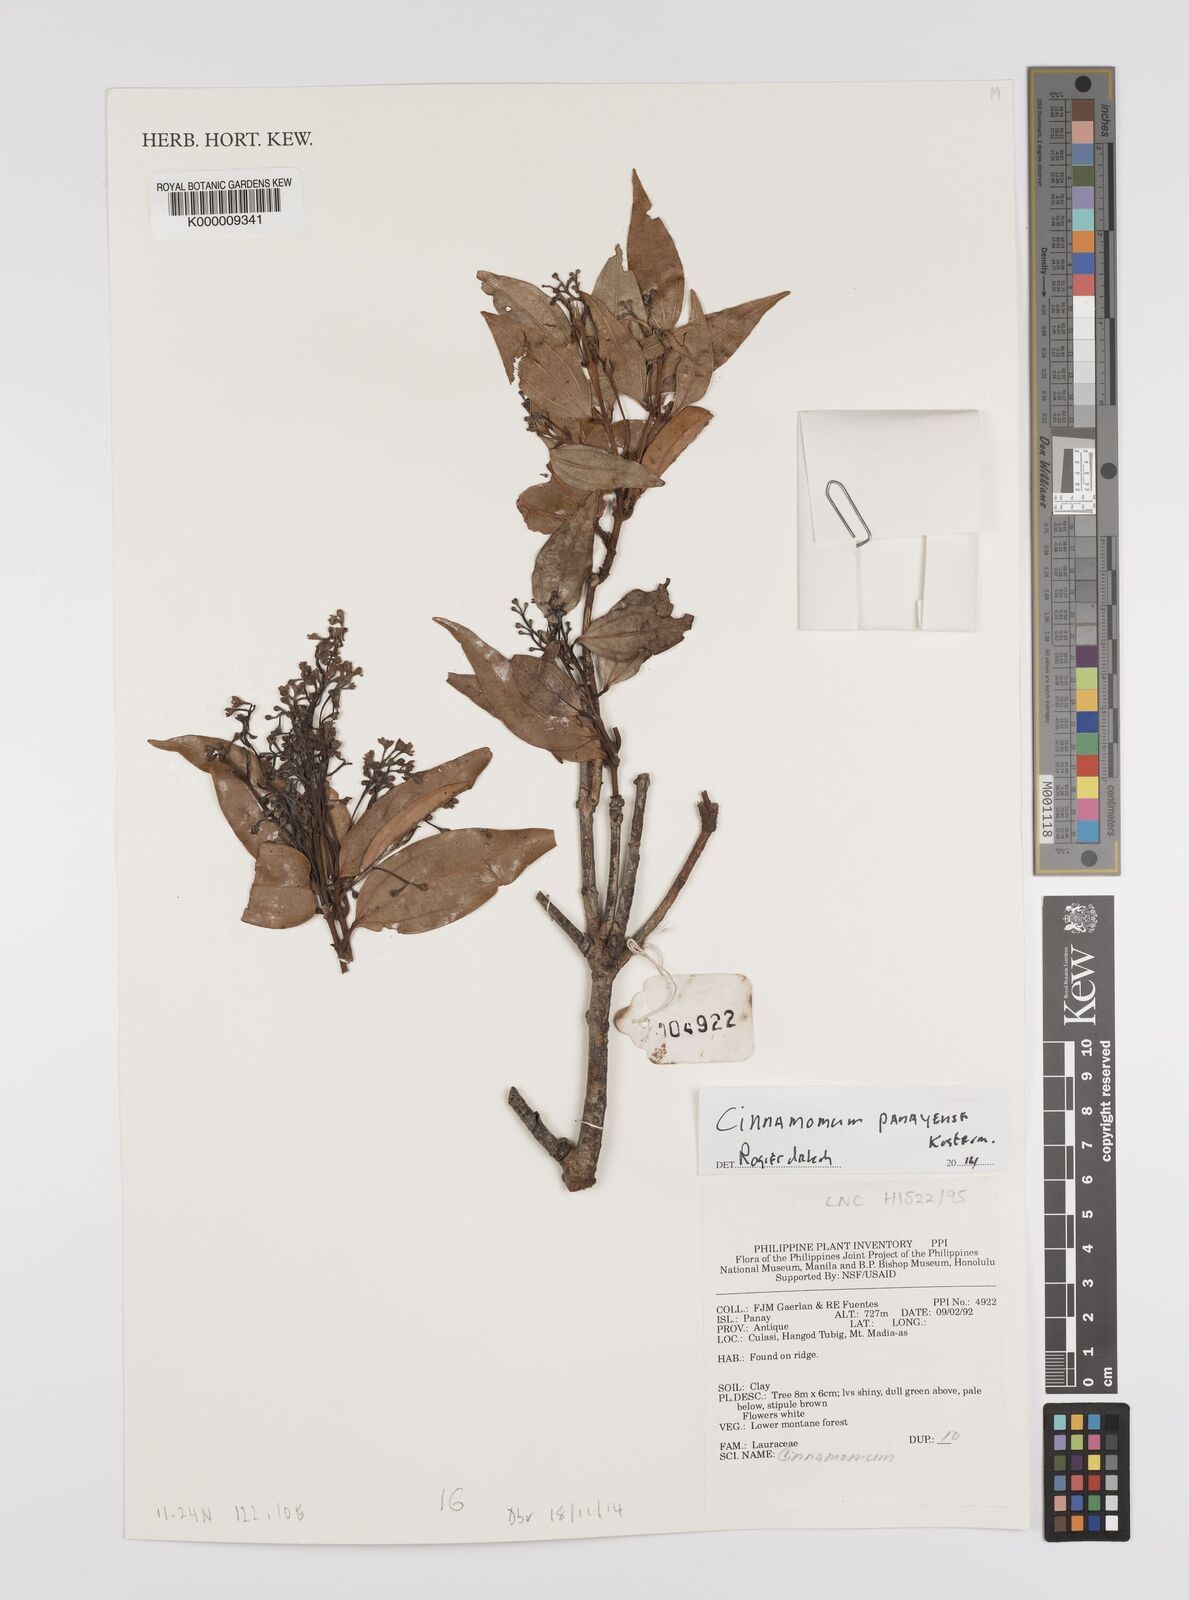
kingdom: Plantae
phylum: Tracheophyta
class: Magnoliopsida
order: Laurales
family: Lauraceae
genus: Cinnamomum
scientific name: Cinnamomum panayense
